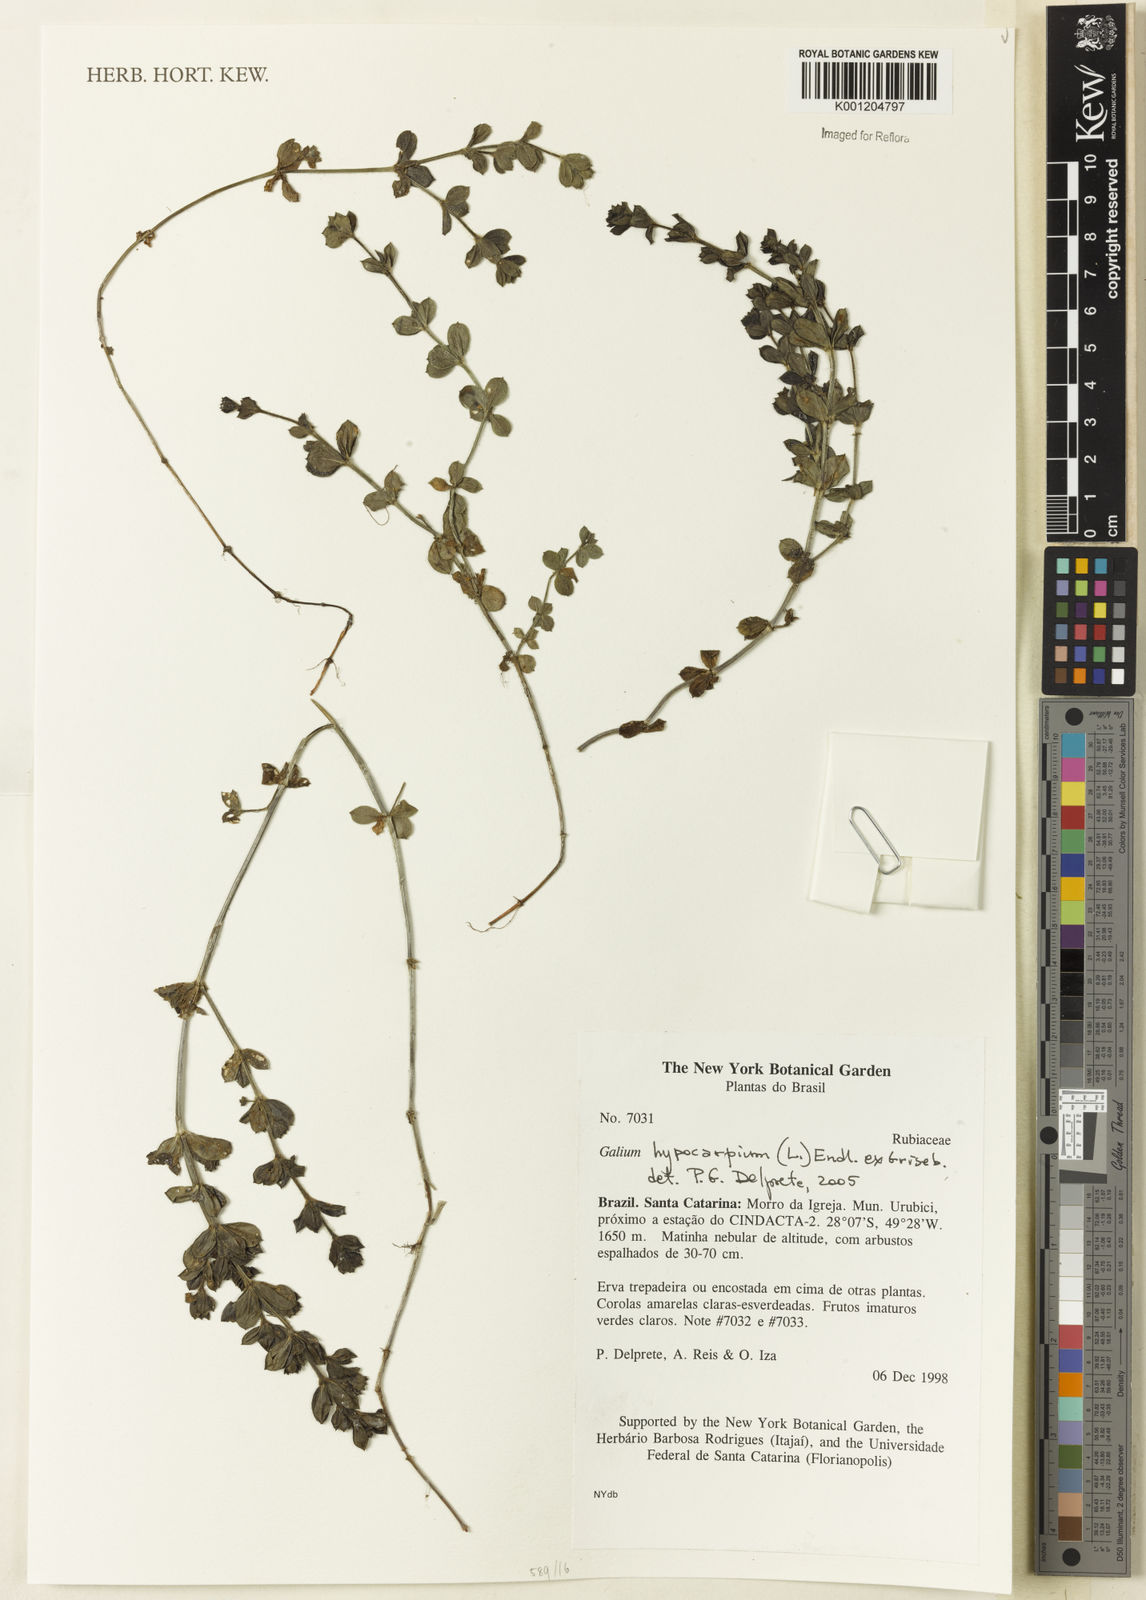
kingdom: Plantae
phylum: Tracheophyta
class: Magnoliopsida
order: Gentianales
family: Rubiaceae
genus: Galium
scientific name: Galium hypocarpium
